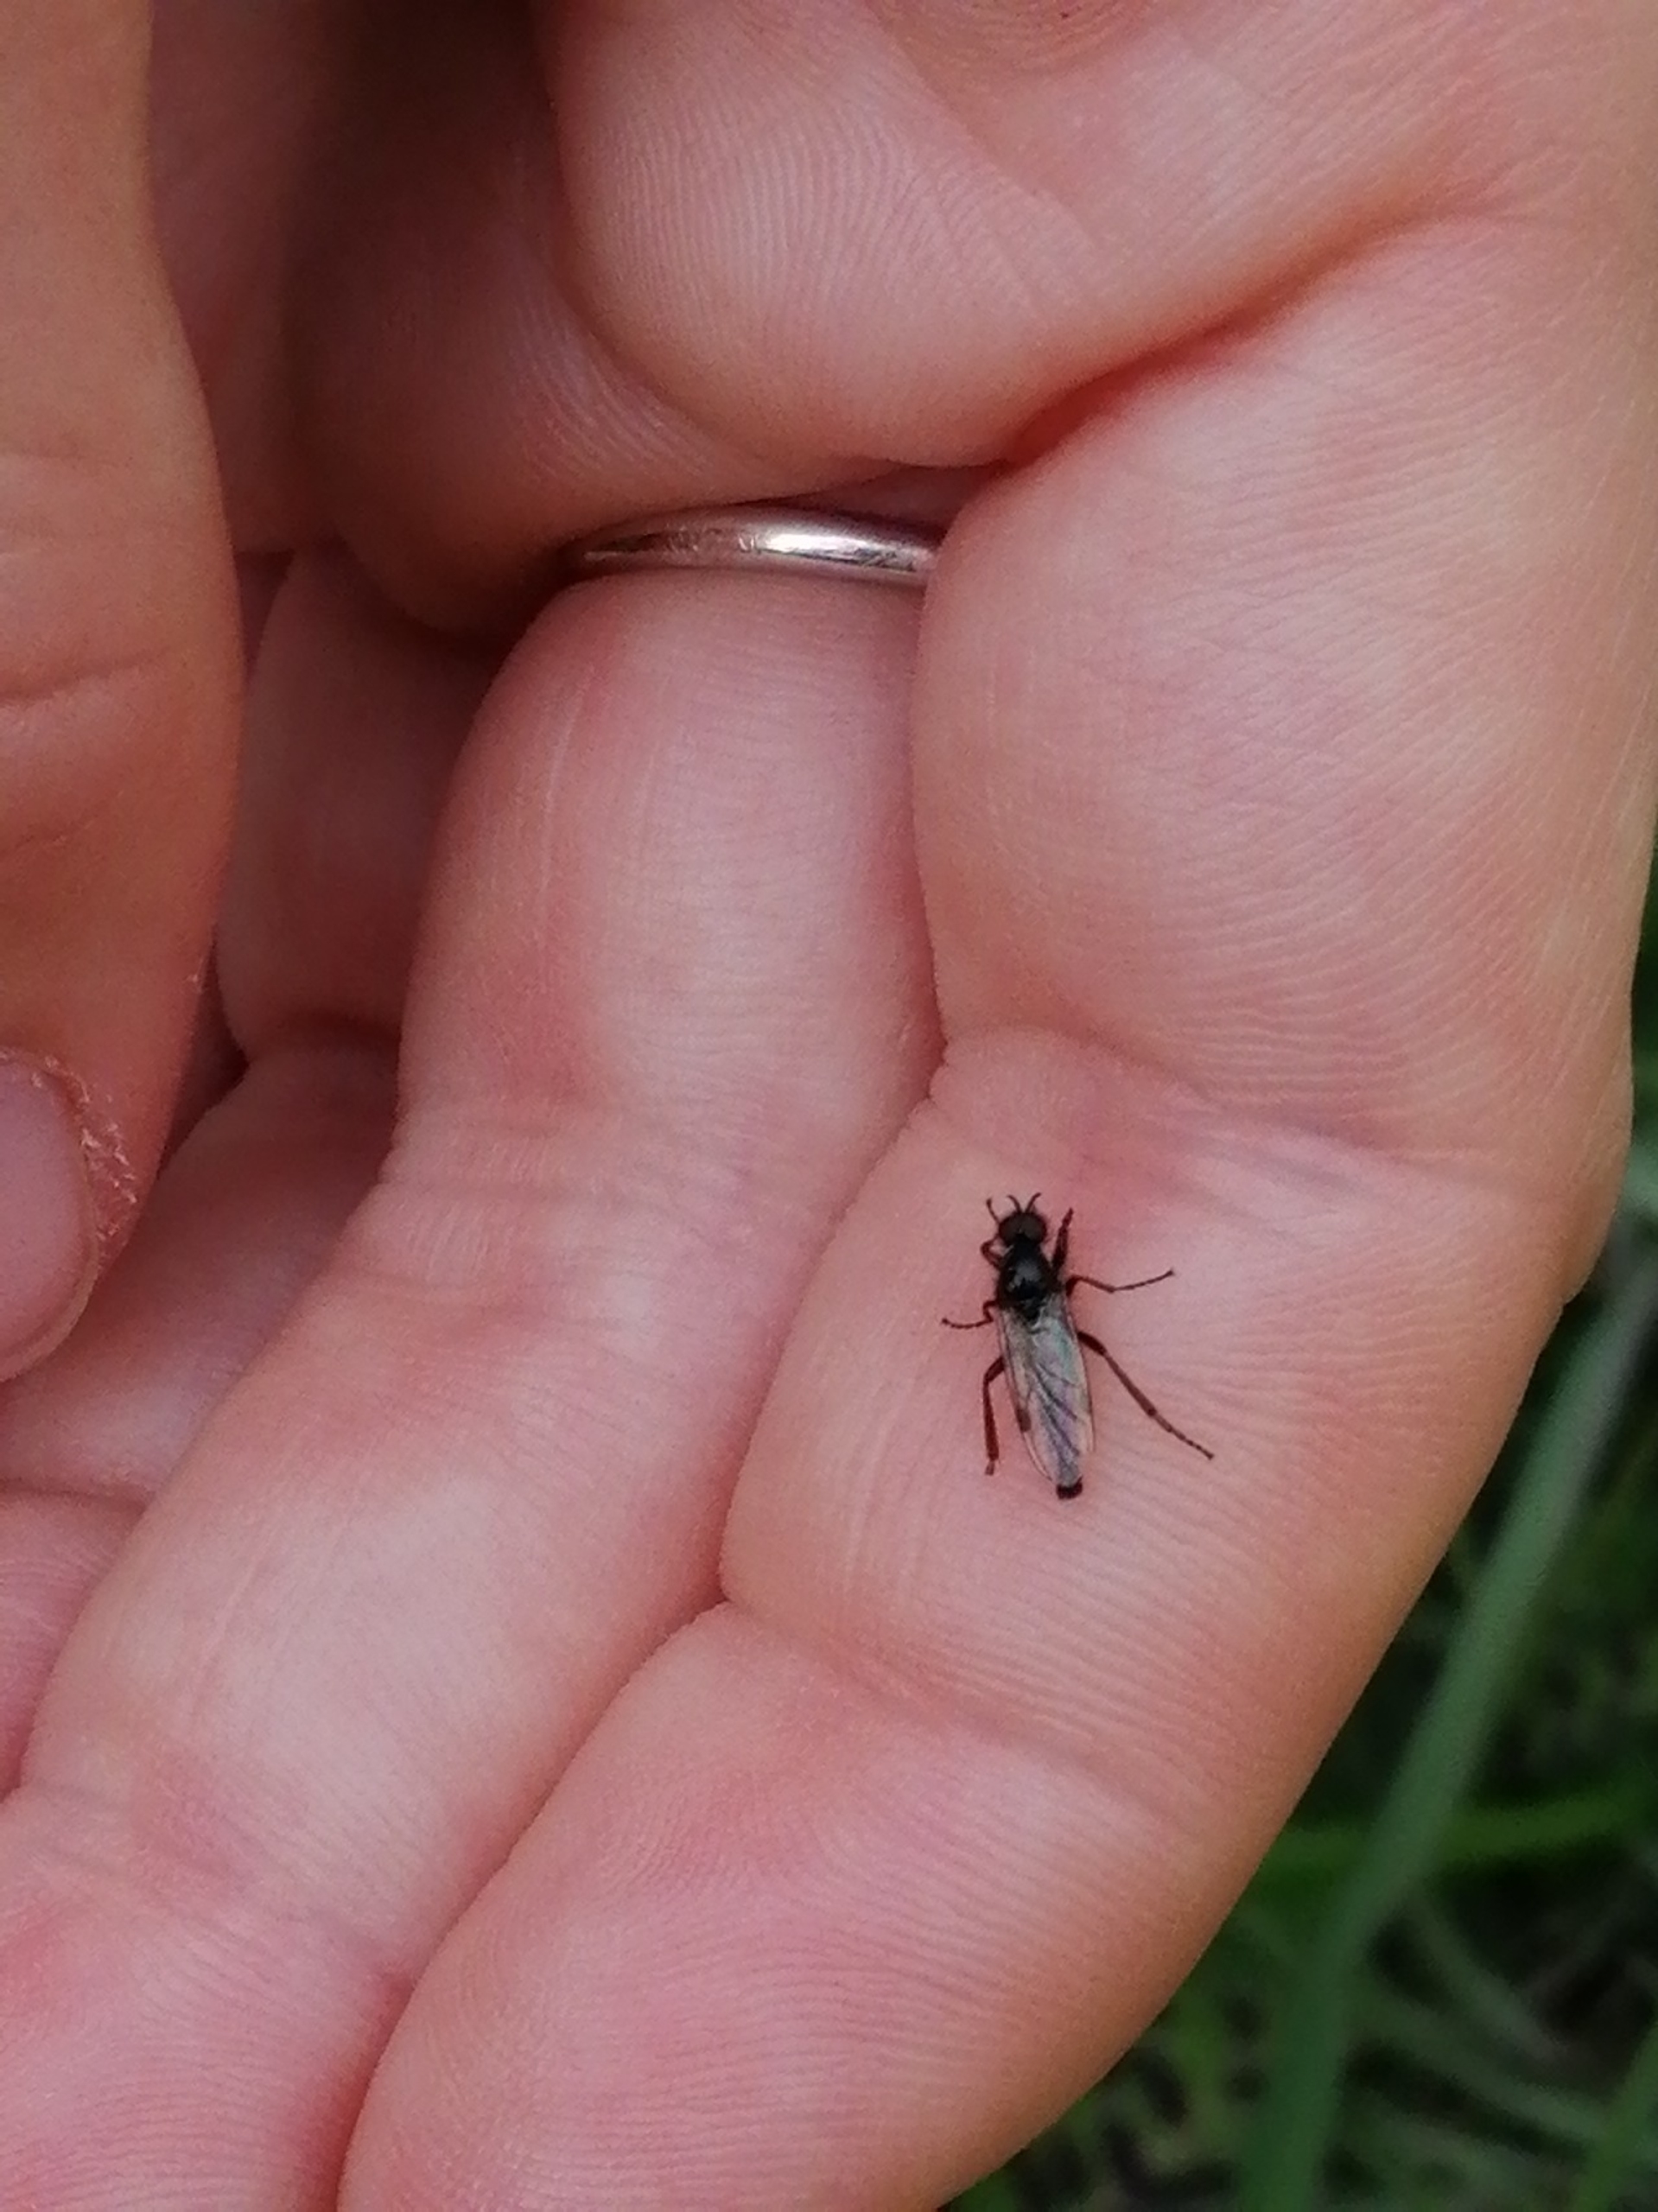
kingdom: Animalia
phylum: Arthropoda
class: Insecta
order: Diptera
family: Bibionidae
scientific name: Bibionidae
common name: Hårmyg
